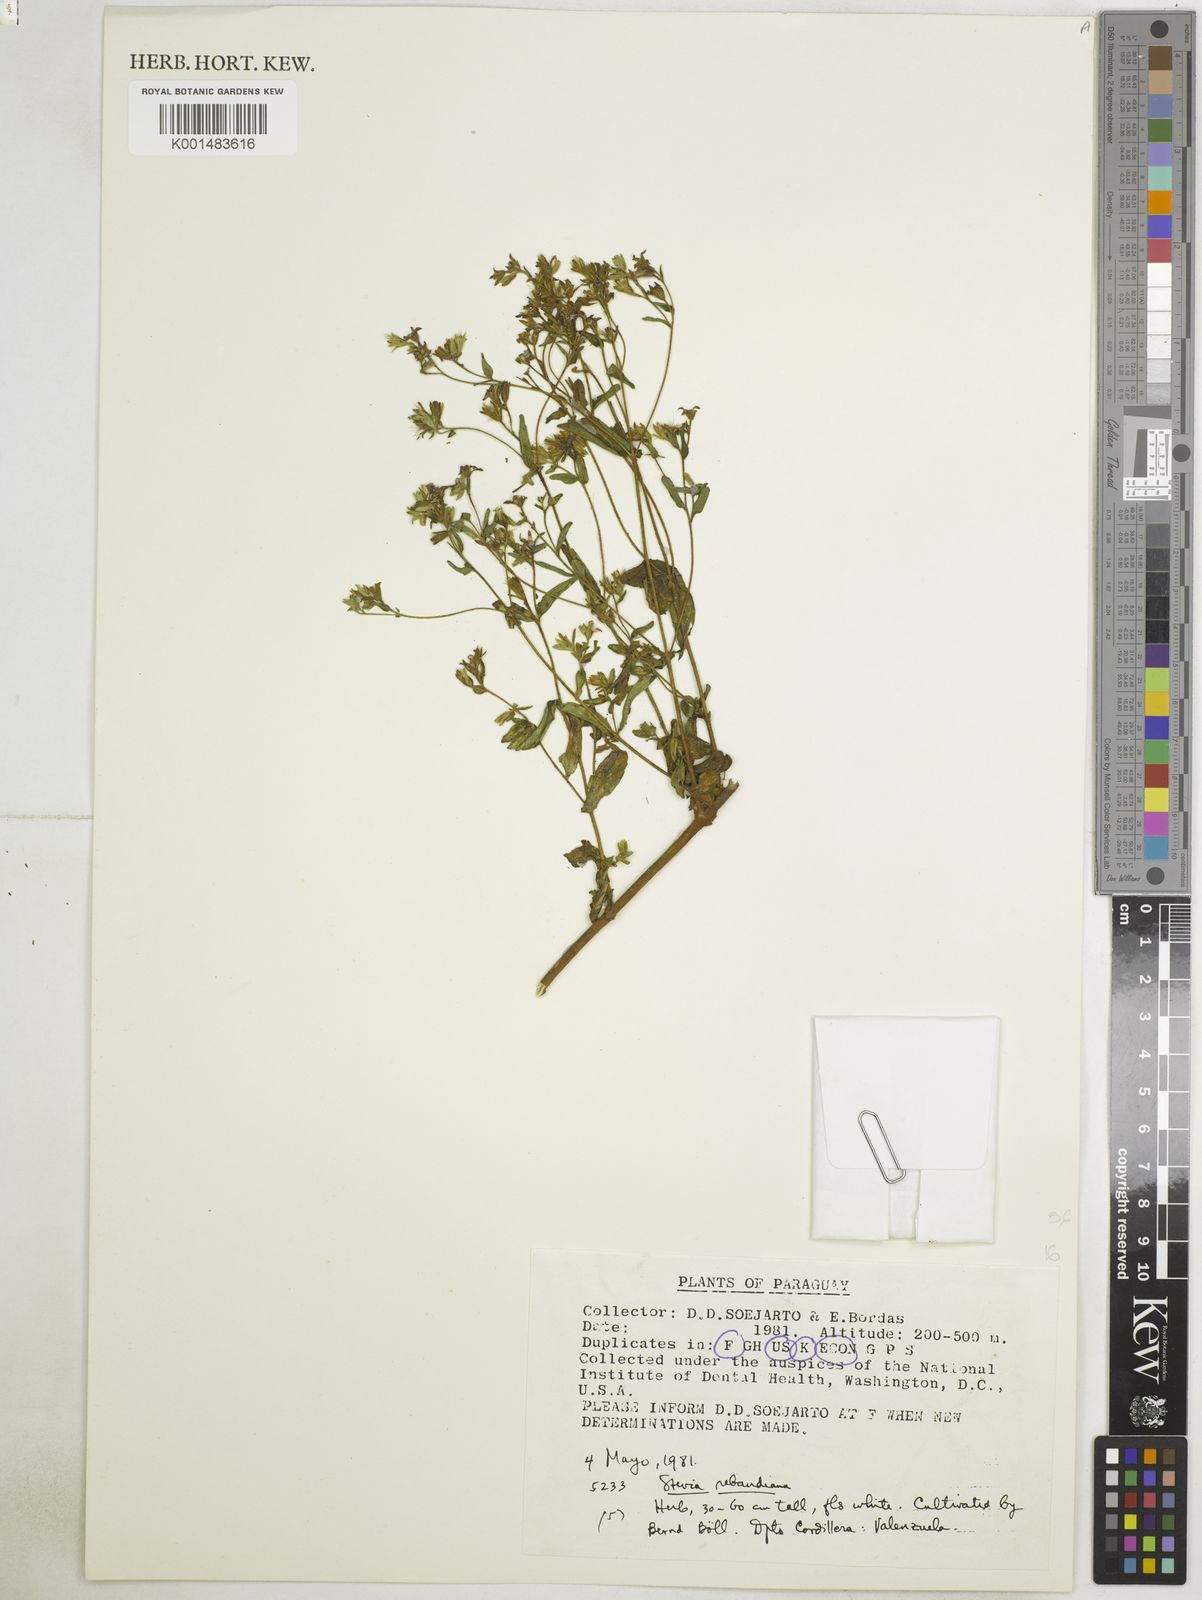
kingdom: Plantae
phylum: Tracheophyta
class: Magnoliopsida
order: Asterales
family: Asteraceae
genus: Stevia
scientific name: Stevia rebaudiana
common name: Stevia
